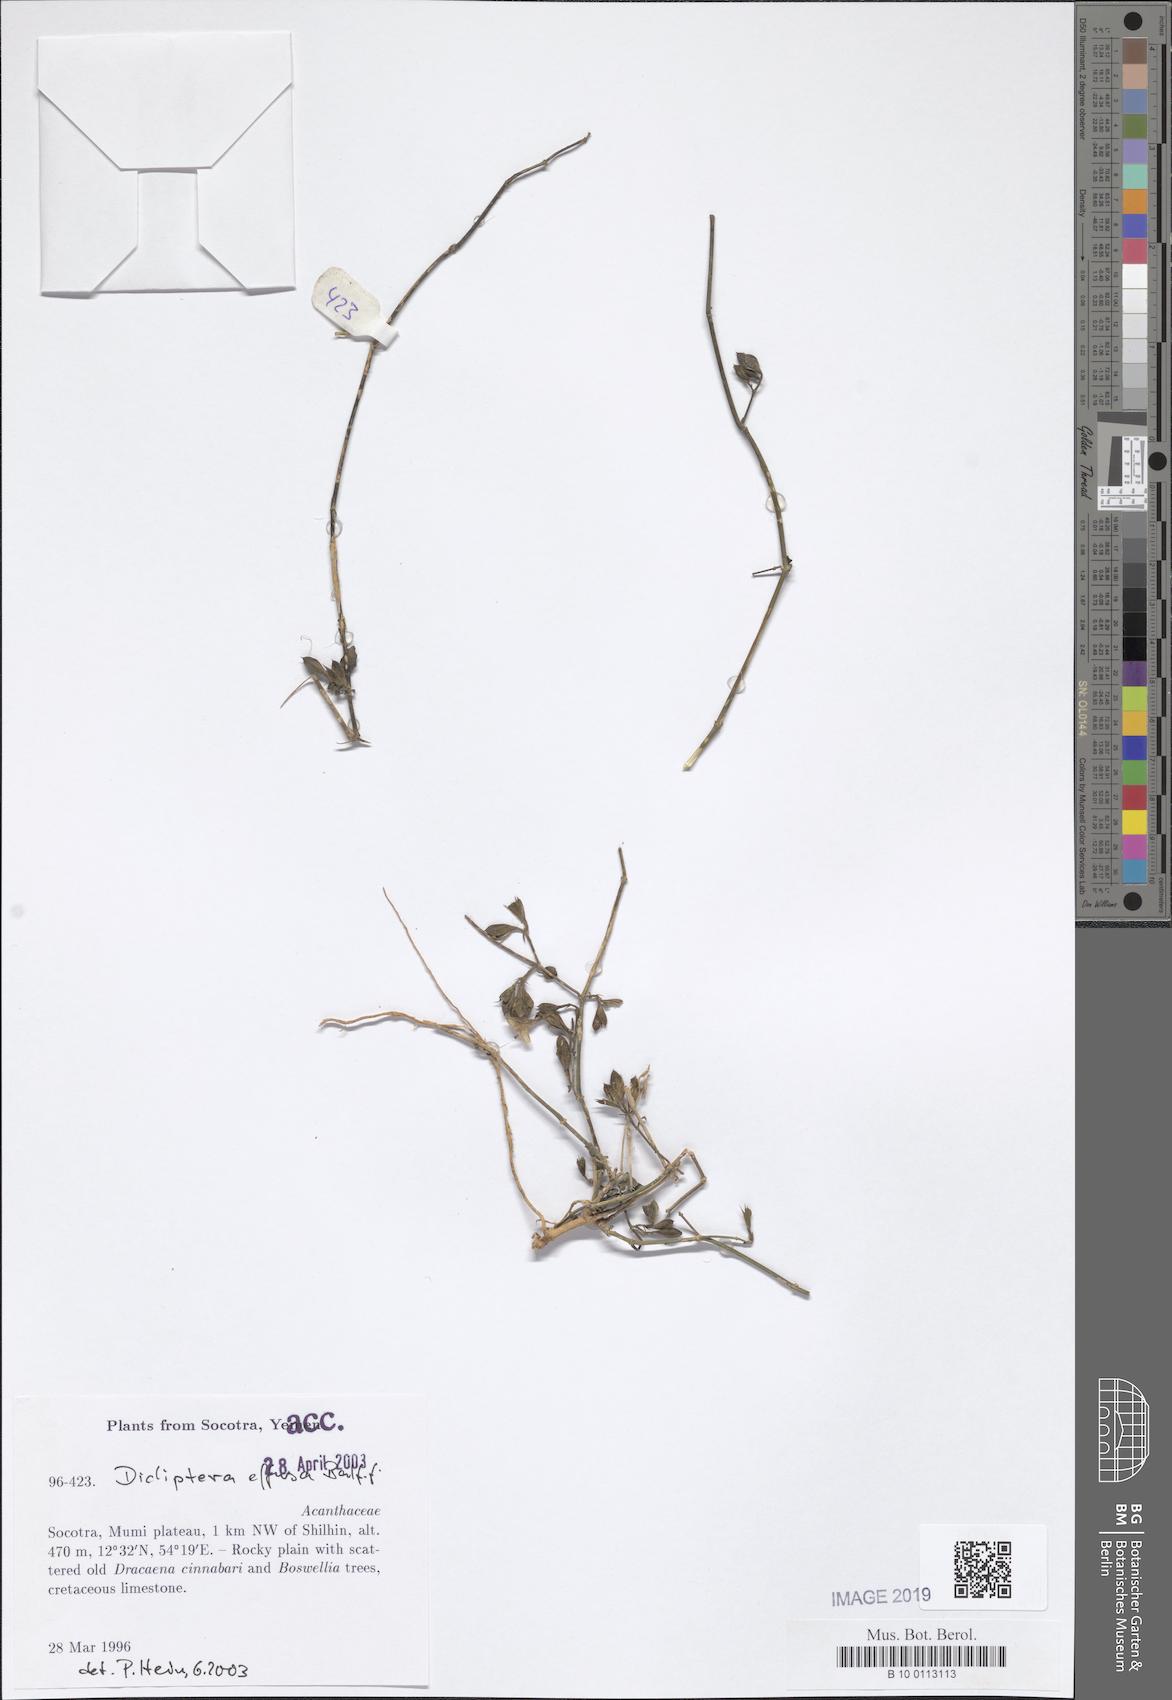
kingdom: Plantae
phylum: Tracheophyta
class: Magnoliopsida
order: Lamiales
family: Acanthaceae
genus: Dicliptera
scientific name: Dicliptera effusa
